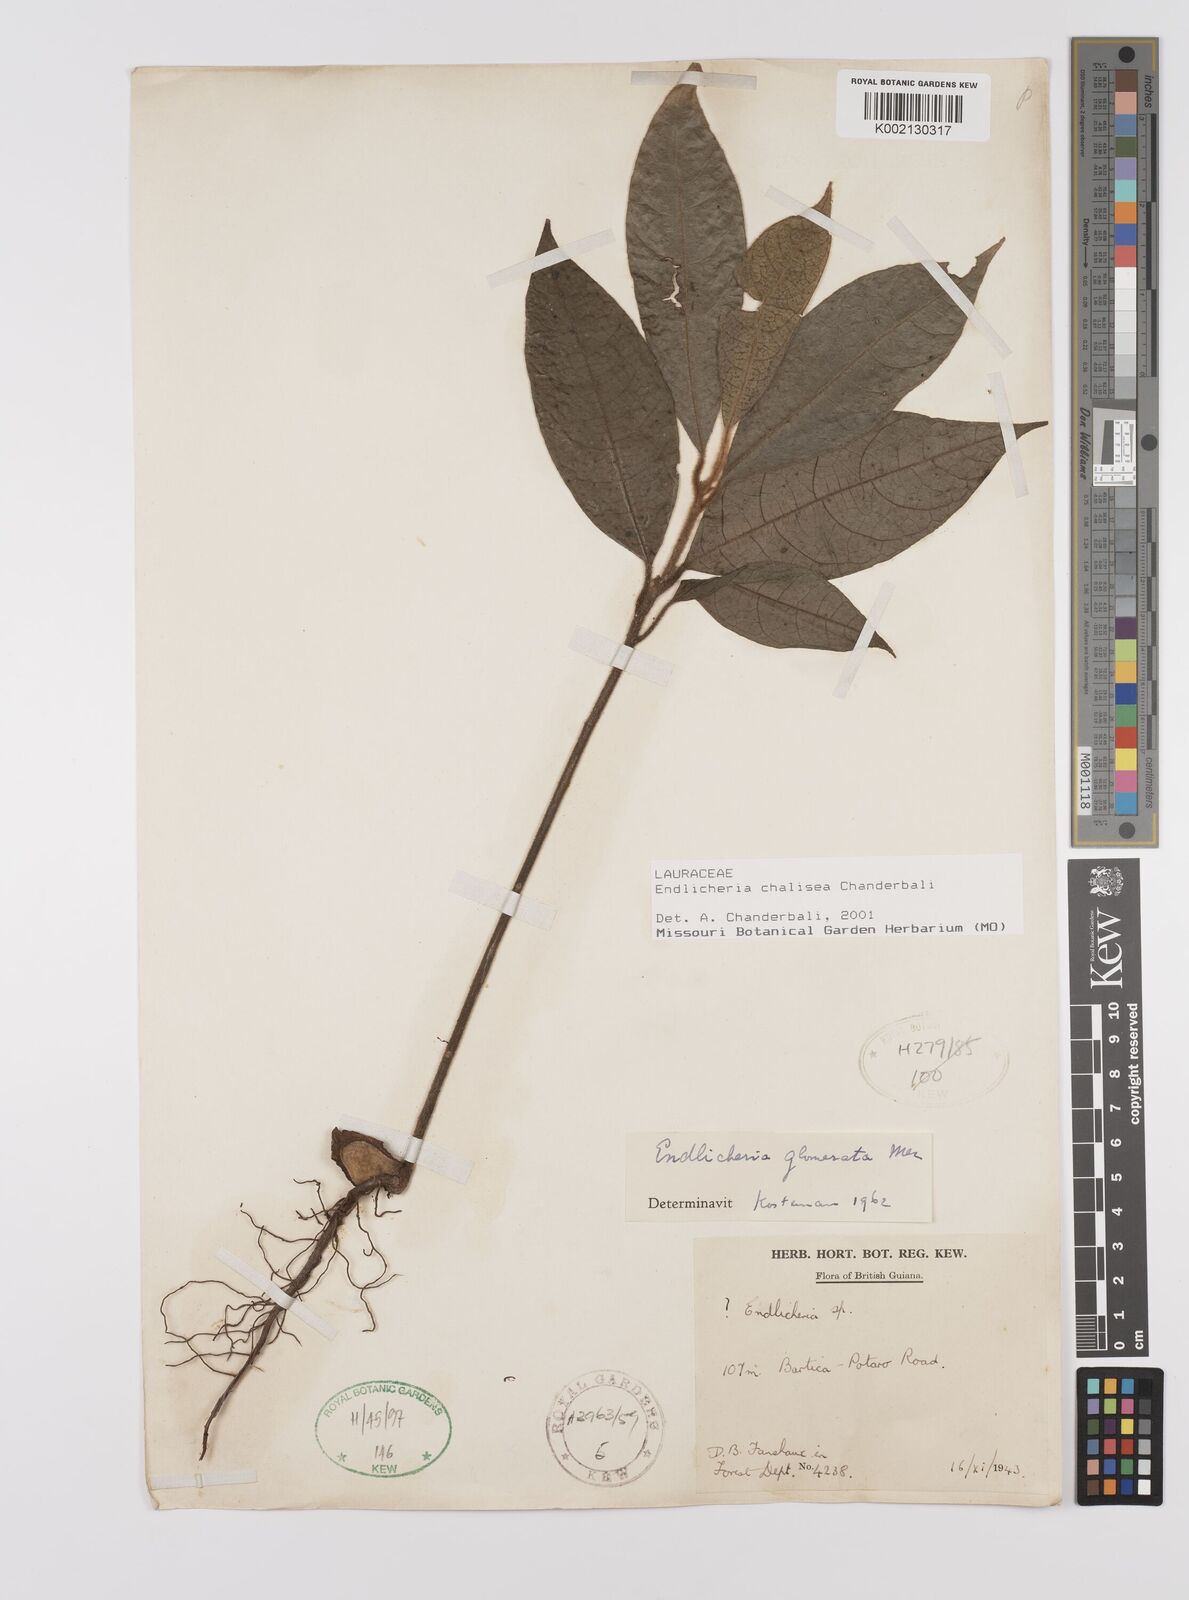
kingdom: Plantae
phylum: Tracheophyta
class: Magnoliopsida
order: Laurales
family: Lauraceae
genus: Endlicheria
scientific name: Endlicheria chalisea
